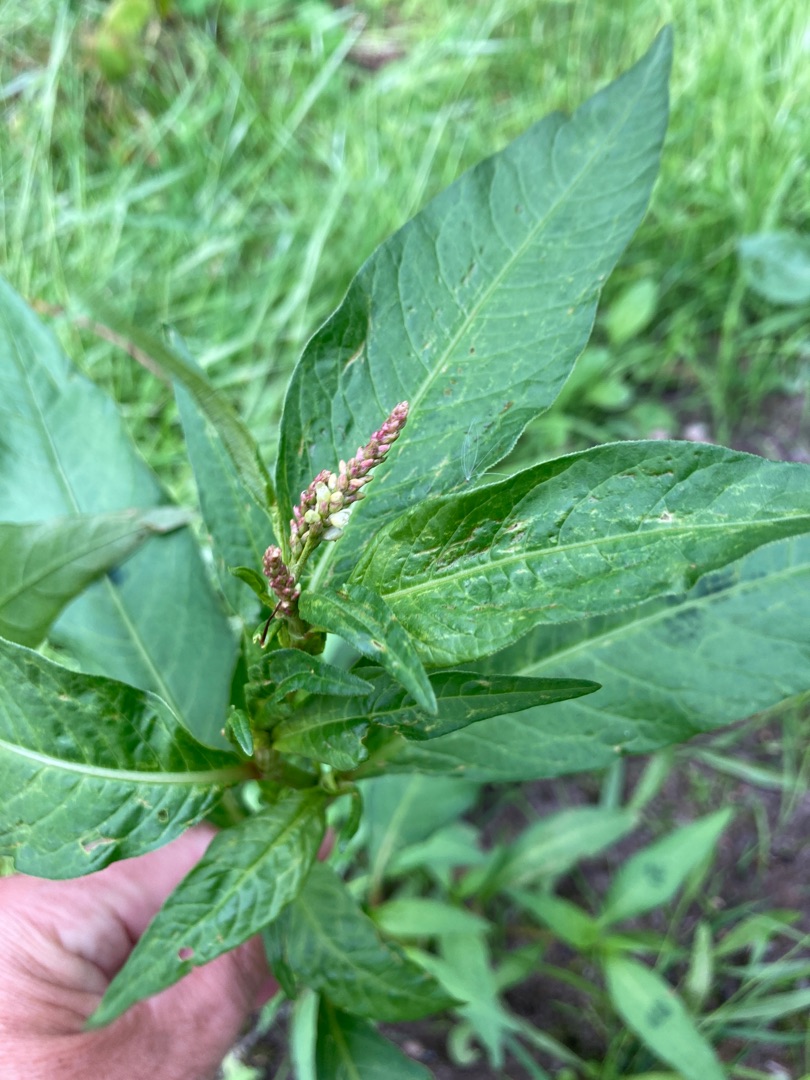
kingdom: Plantae
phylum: Tracheophyta
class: Magnoliopsida
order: Caryophyllales
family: Polygonaceae
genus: Persicaria
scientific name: Persicaria
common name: Pileurt (Persicaria-slægten)
